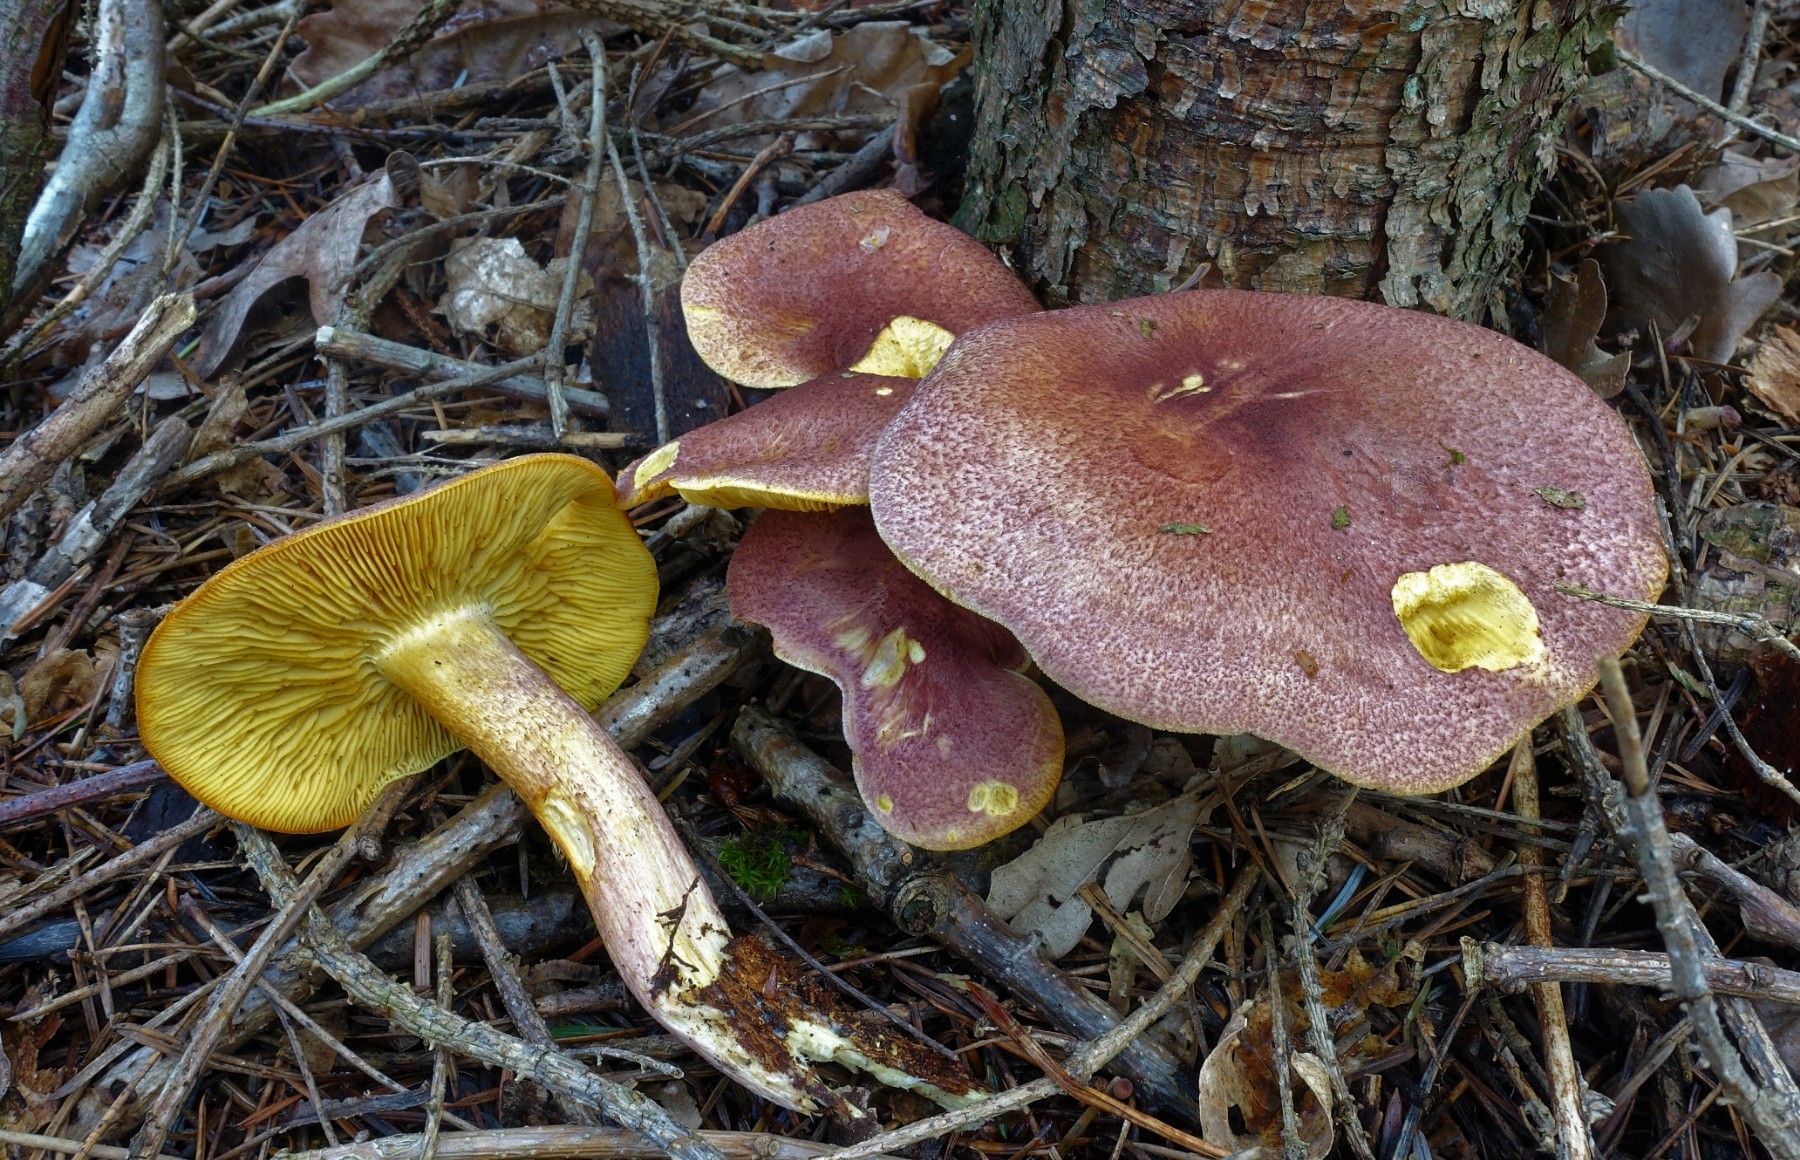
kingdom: Fungi
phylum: Basidiomycota
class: Agaricomycetes
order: Agaricales
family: Tricholomataceae
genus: Tricholomopsis
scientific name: Tricholomopsis rutilans
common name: purpur-væbnerhat
